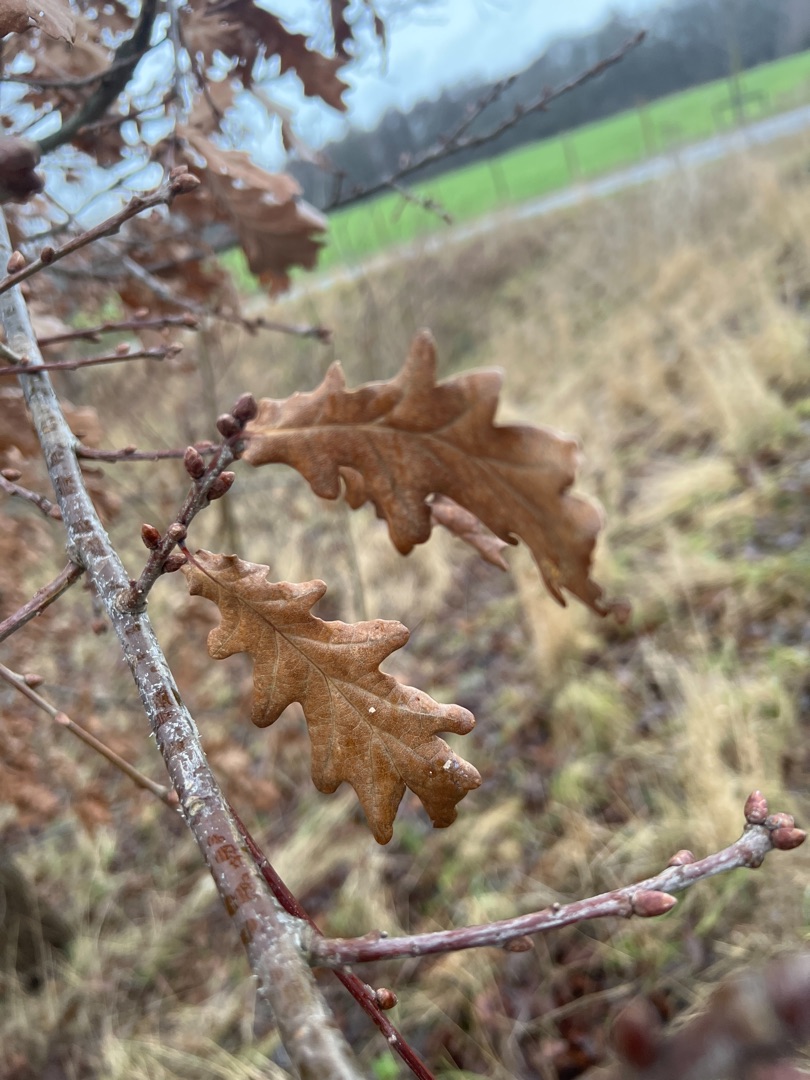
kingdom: Plantae
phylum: Tracheophyta
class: Magnoliopsida
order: Fagales
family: Fagaceae
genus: Quercus
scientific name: Quercus robur
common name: Stilk-eg/almindelig eg
